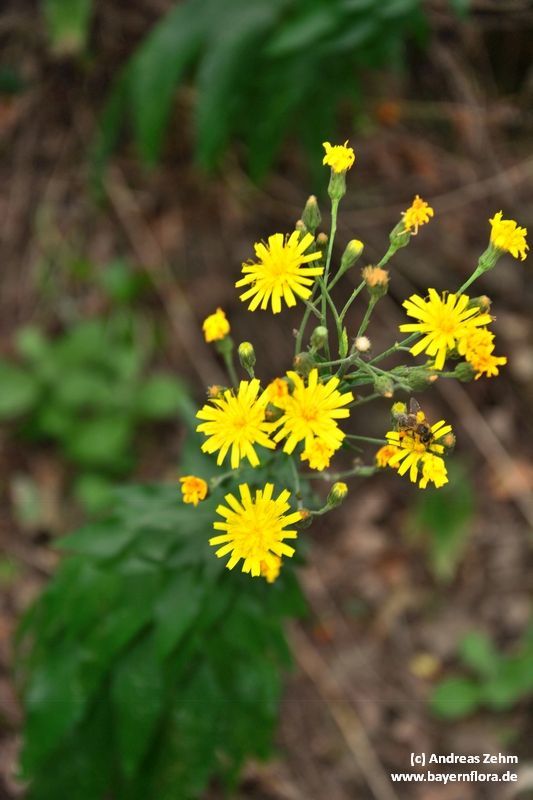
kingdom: Plantae
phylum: Tracheophyta
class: Magnoliopsida
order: Asterales
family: Asteraceae
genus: Hieracium
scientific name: Hieracium sabaudum
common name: New england hawkweed
